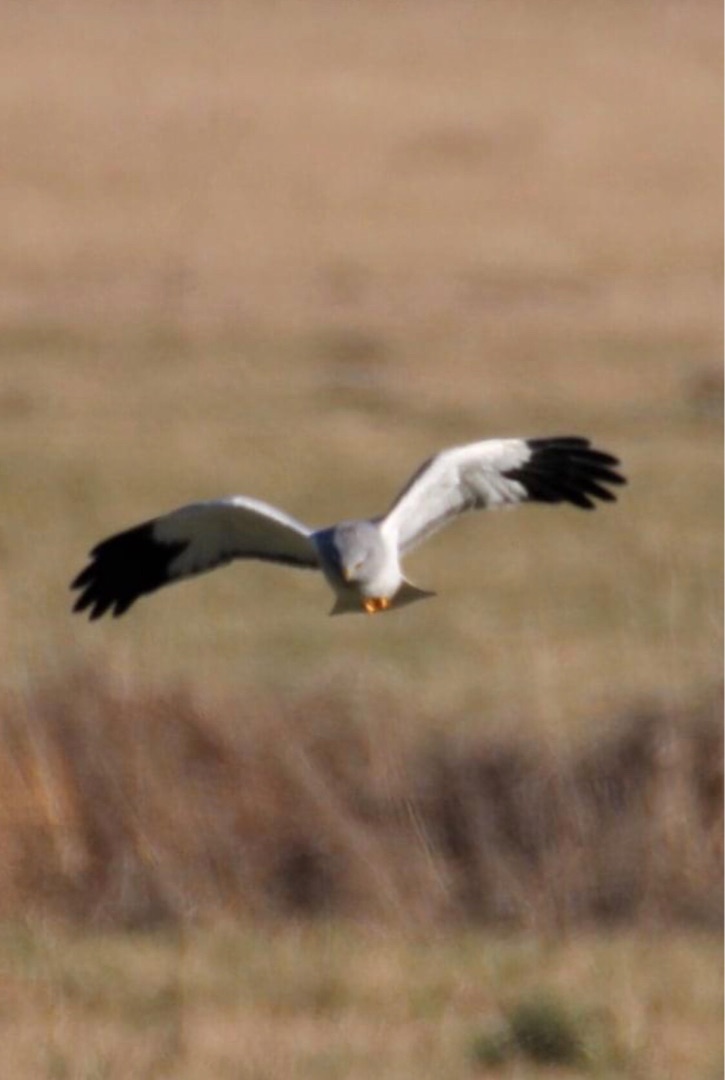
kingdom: Animalia
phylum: Chordata
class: Aves
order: Accipitriformes
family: Accipitridae
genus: Circus
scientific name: Circus cyaneus
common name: Blå kærhøg
